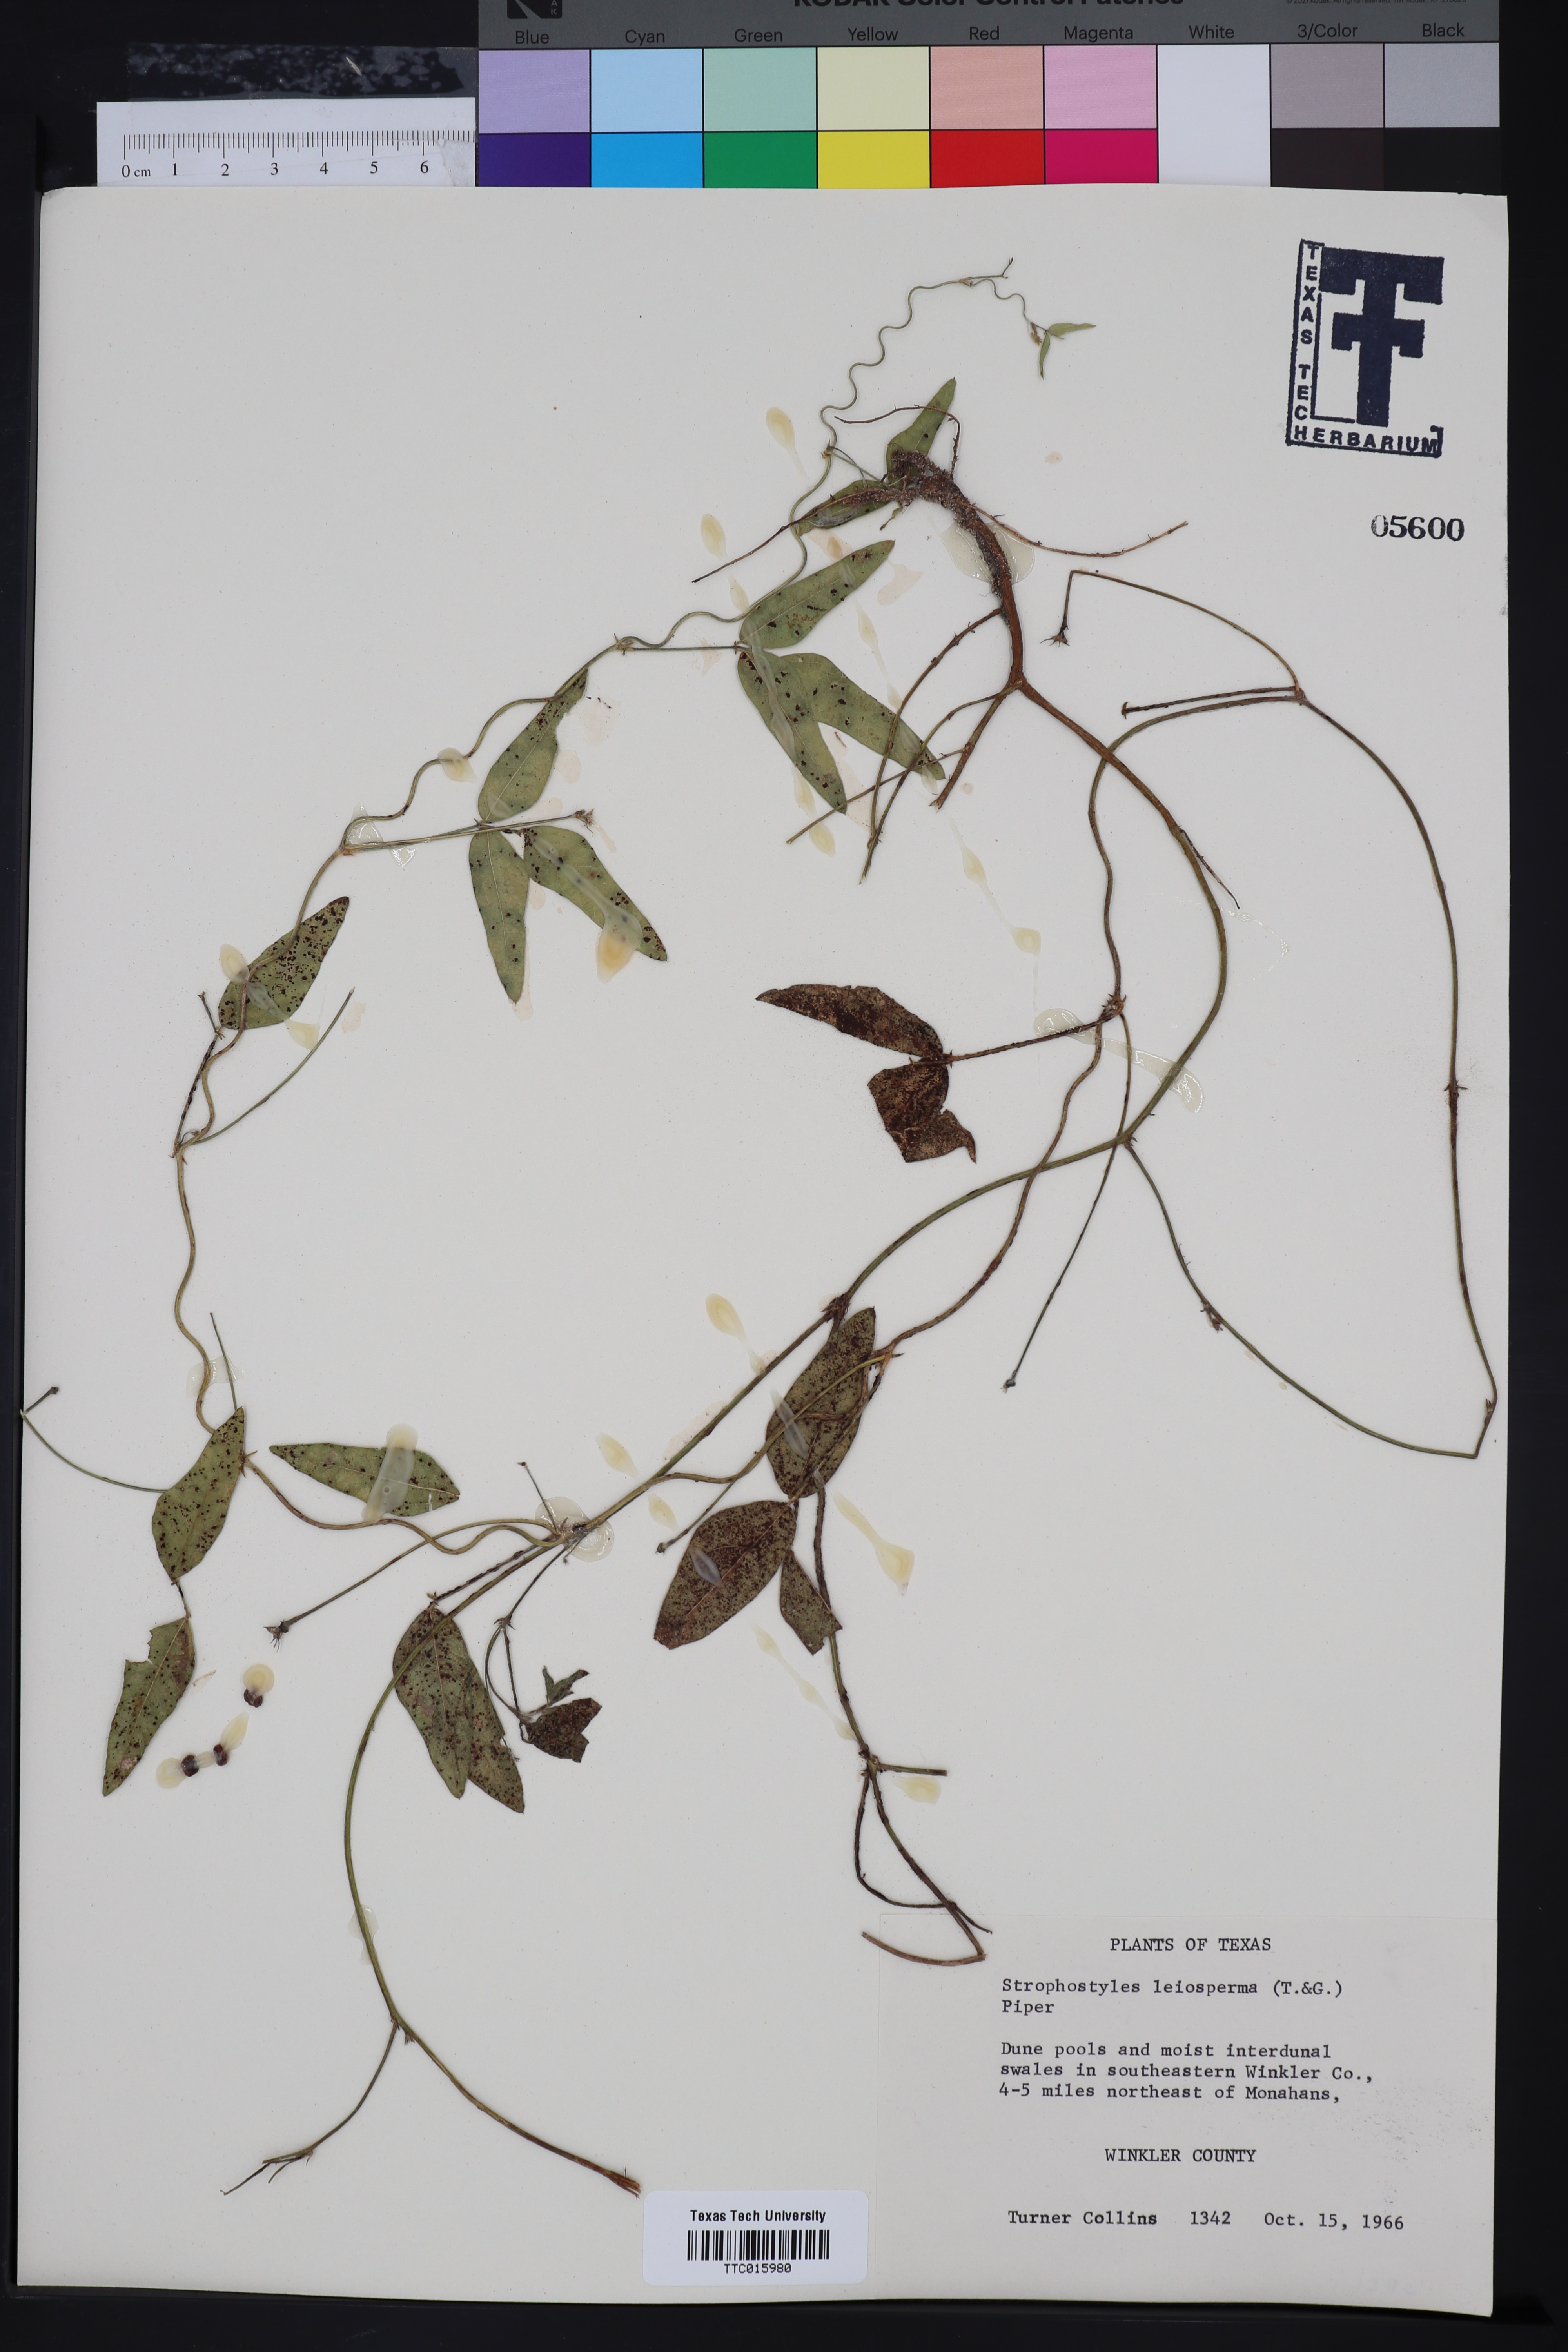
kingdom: Plantae
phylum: Tracheophyta
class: Magnoliopsida
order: Fabales
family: Fabaceae
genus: Strophostyles
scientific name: Strophostyles leiosperma
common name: Smooth-seed wild bean
